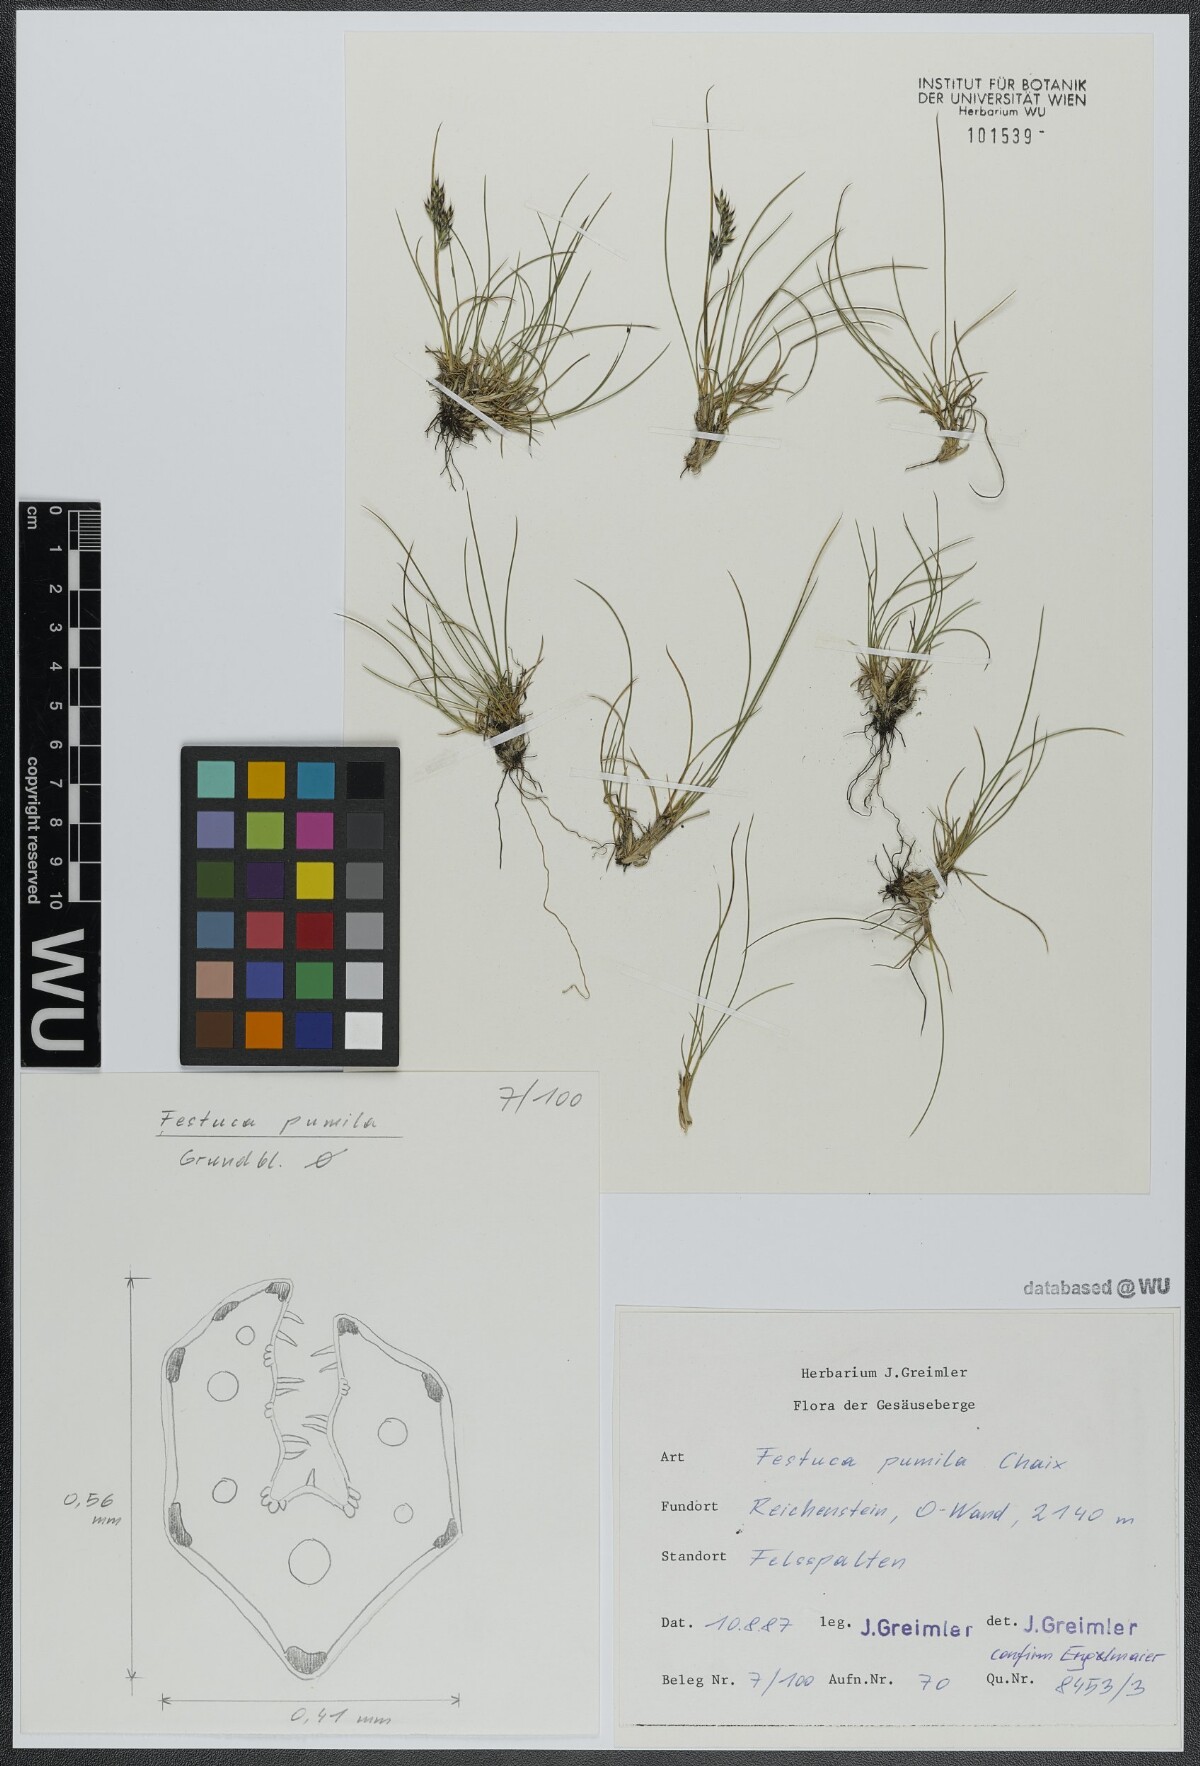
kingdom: Plantae
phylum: Tracheophyta
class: Liliopsida
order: Poales
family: Poaceae
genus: Festuca
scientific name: Festuca quadriflora
